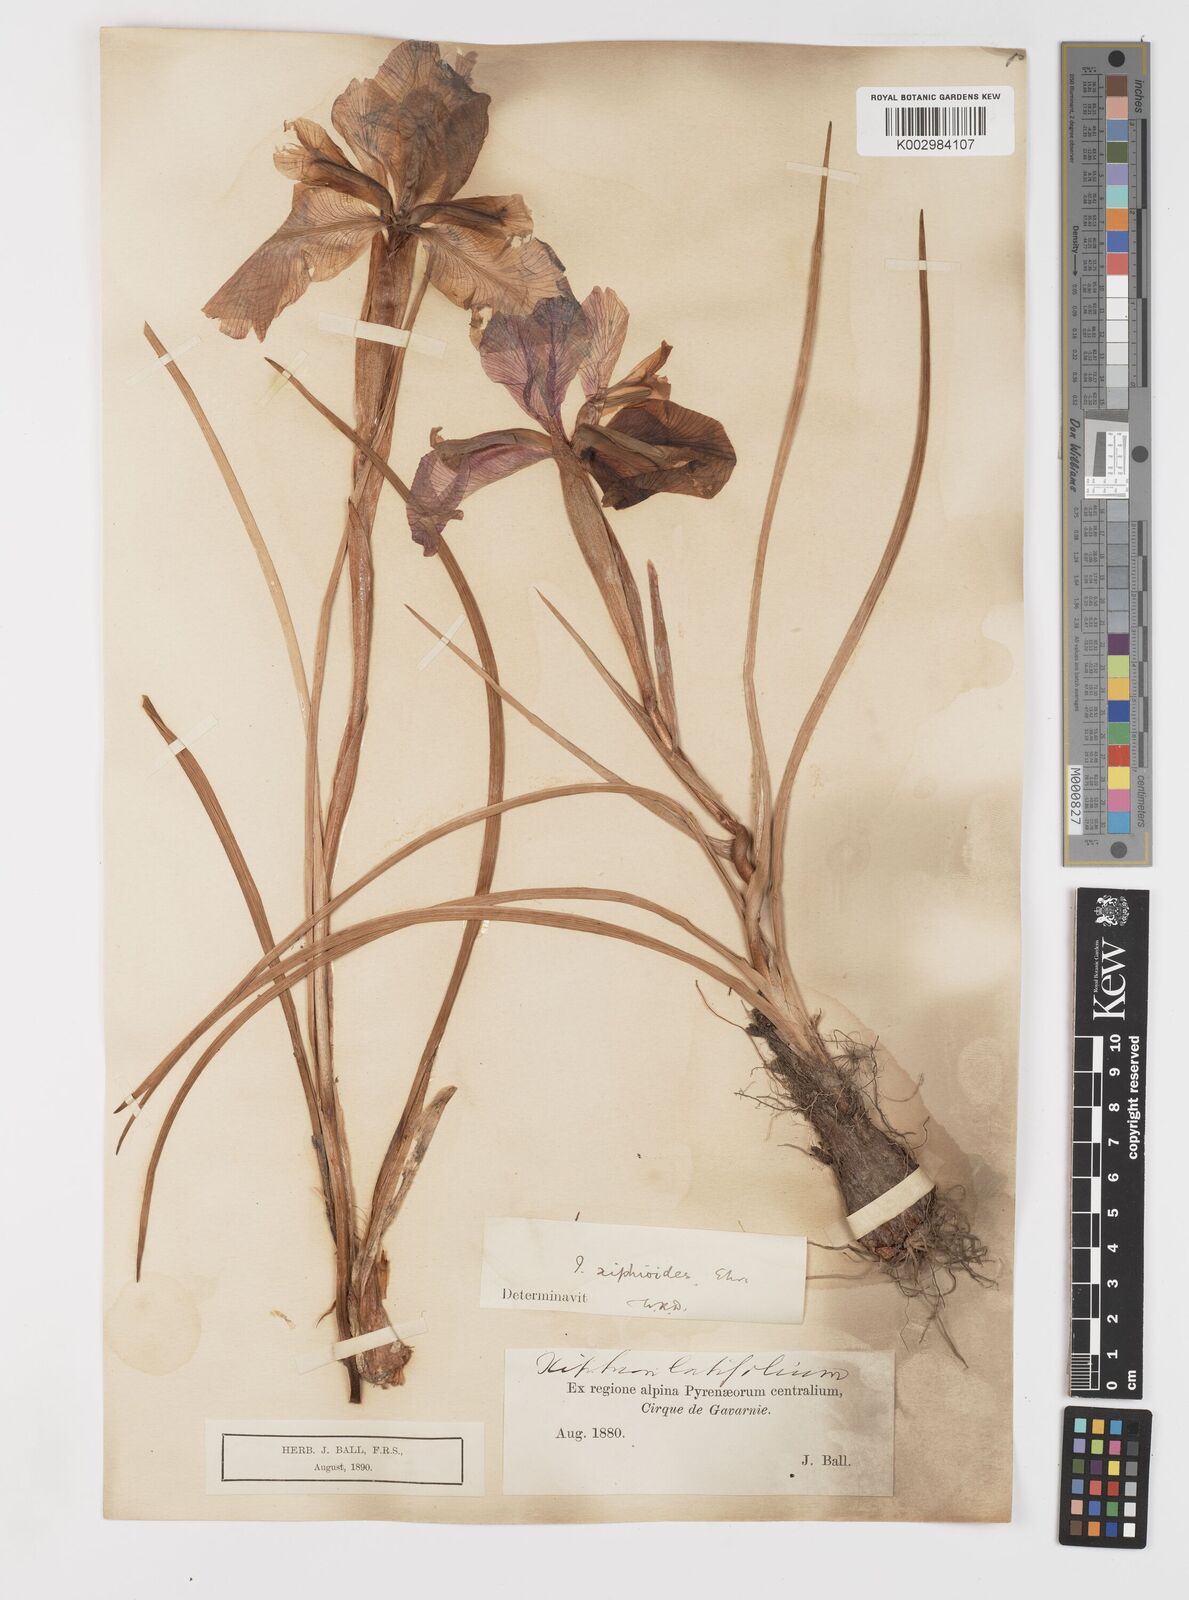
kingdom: Plantae
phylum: Tracheophyta
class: Liliopsida
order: Asparagales
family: Iridaceae
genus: Iris
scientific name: Iris jacquinii
